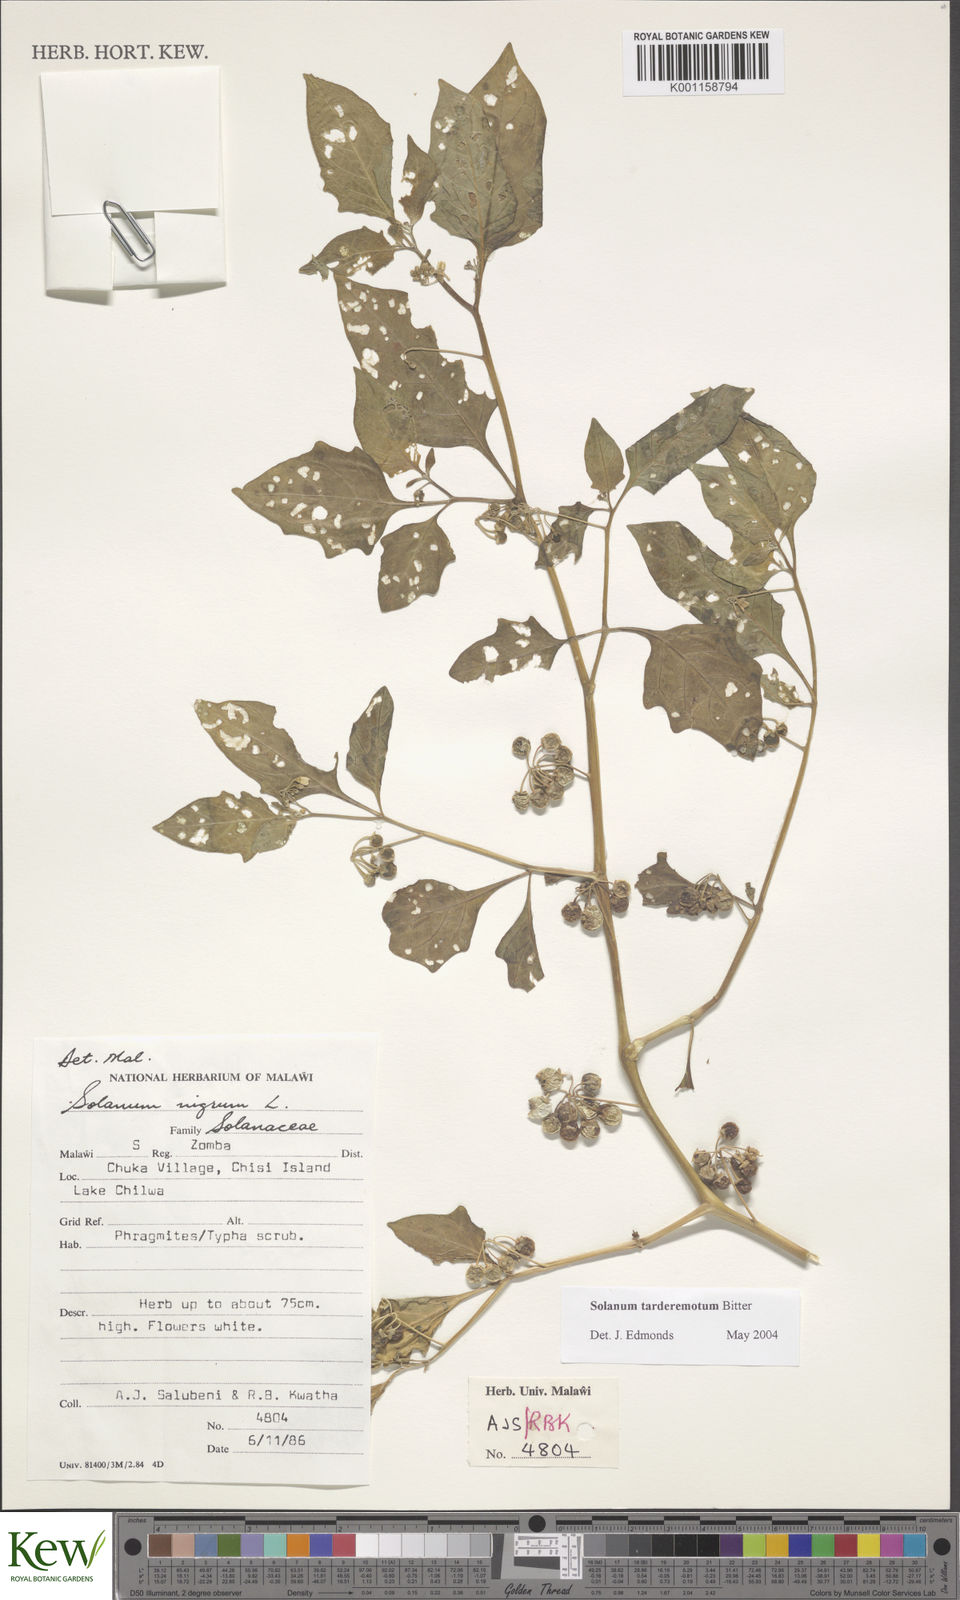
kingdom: Plantae
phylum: Tracheophyta
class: Magnoliopsida
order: Solanales
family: Solanaceae
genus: Solanum
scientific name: Solanum tarderemotum
